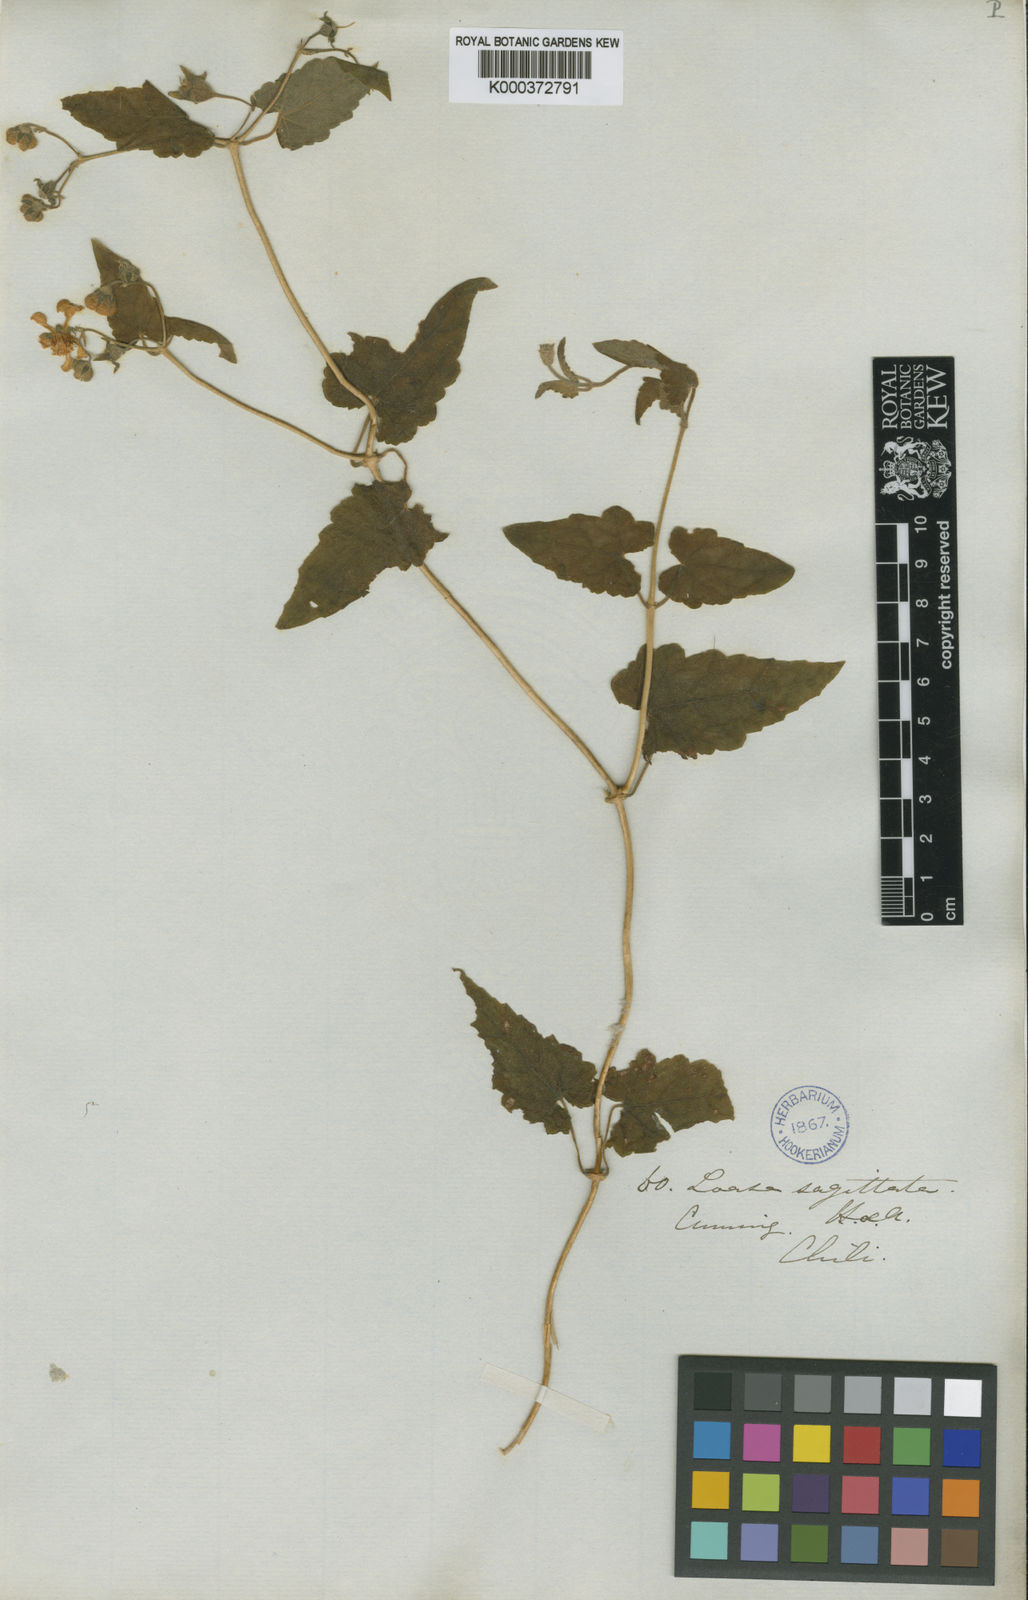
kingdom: Plantae
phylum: Tracheophyta
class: Magnoliopsida
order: Cornales
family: Loasaceae
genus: Grausa
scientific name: Grausa sagittata
